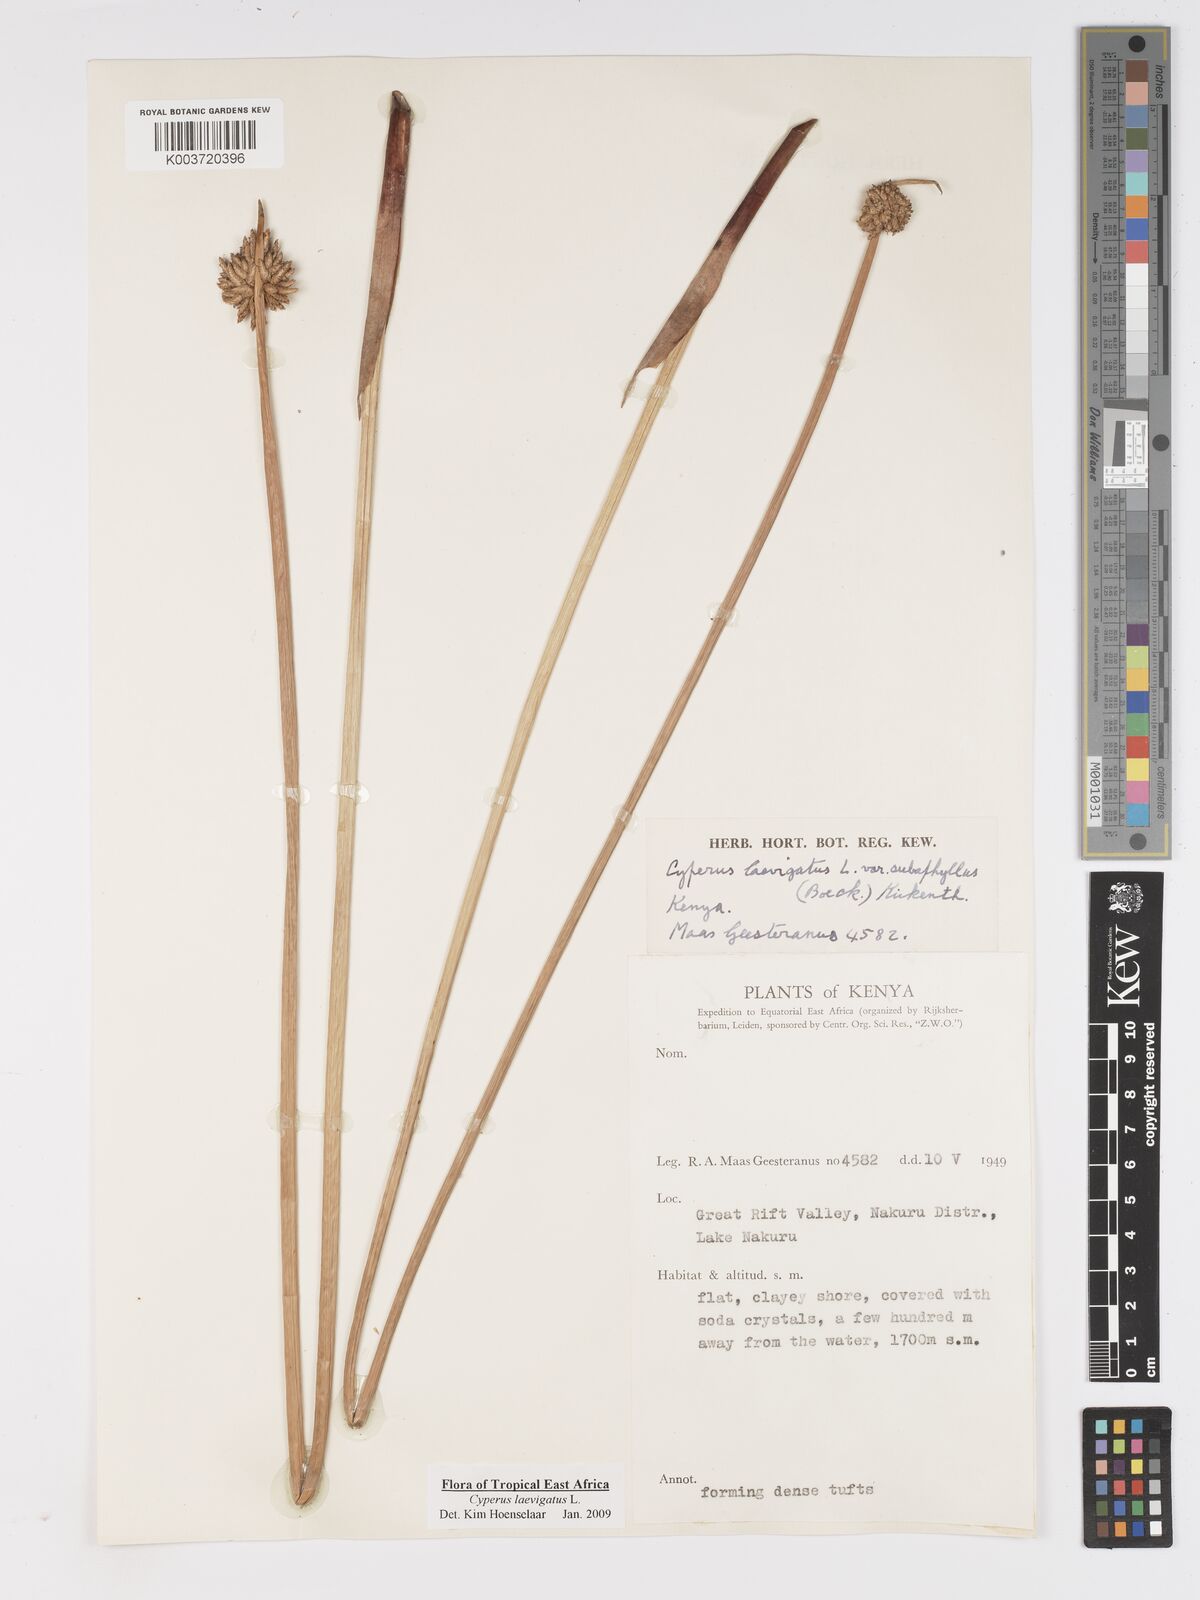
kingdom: Plantae
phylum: Tracheophyta
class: Liliopsida
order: Poales
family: Cyperaceae
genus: Cyperus
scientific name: Cyperus laevigatus
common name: Smooth flat sedge
